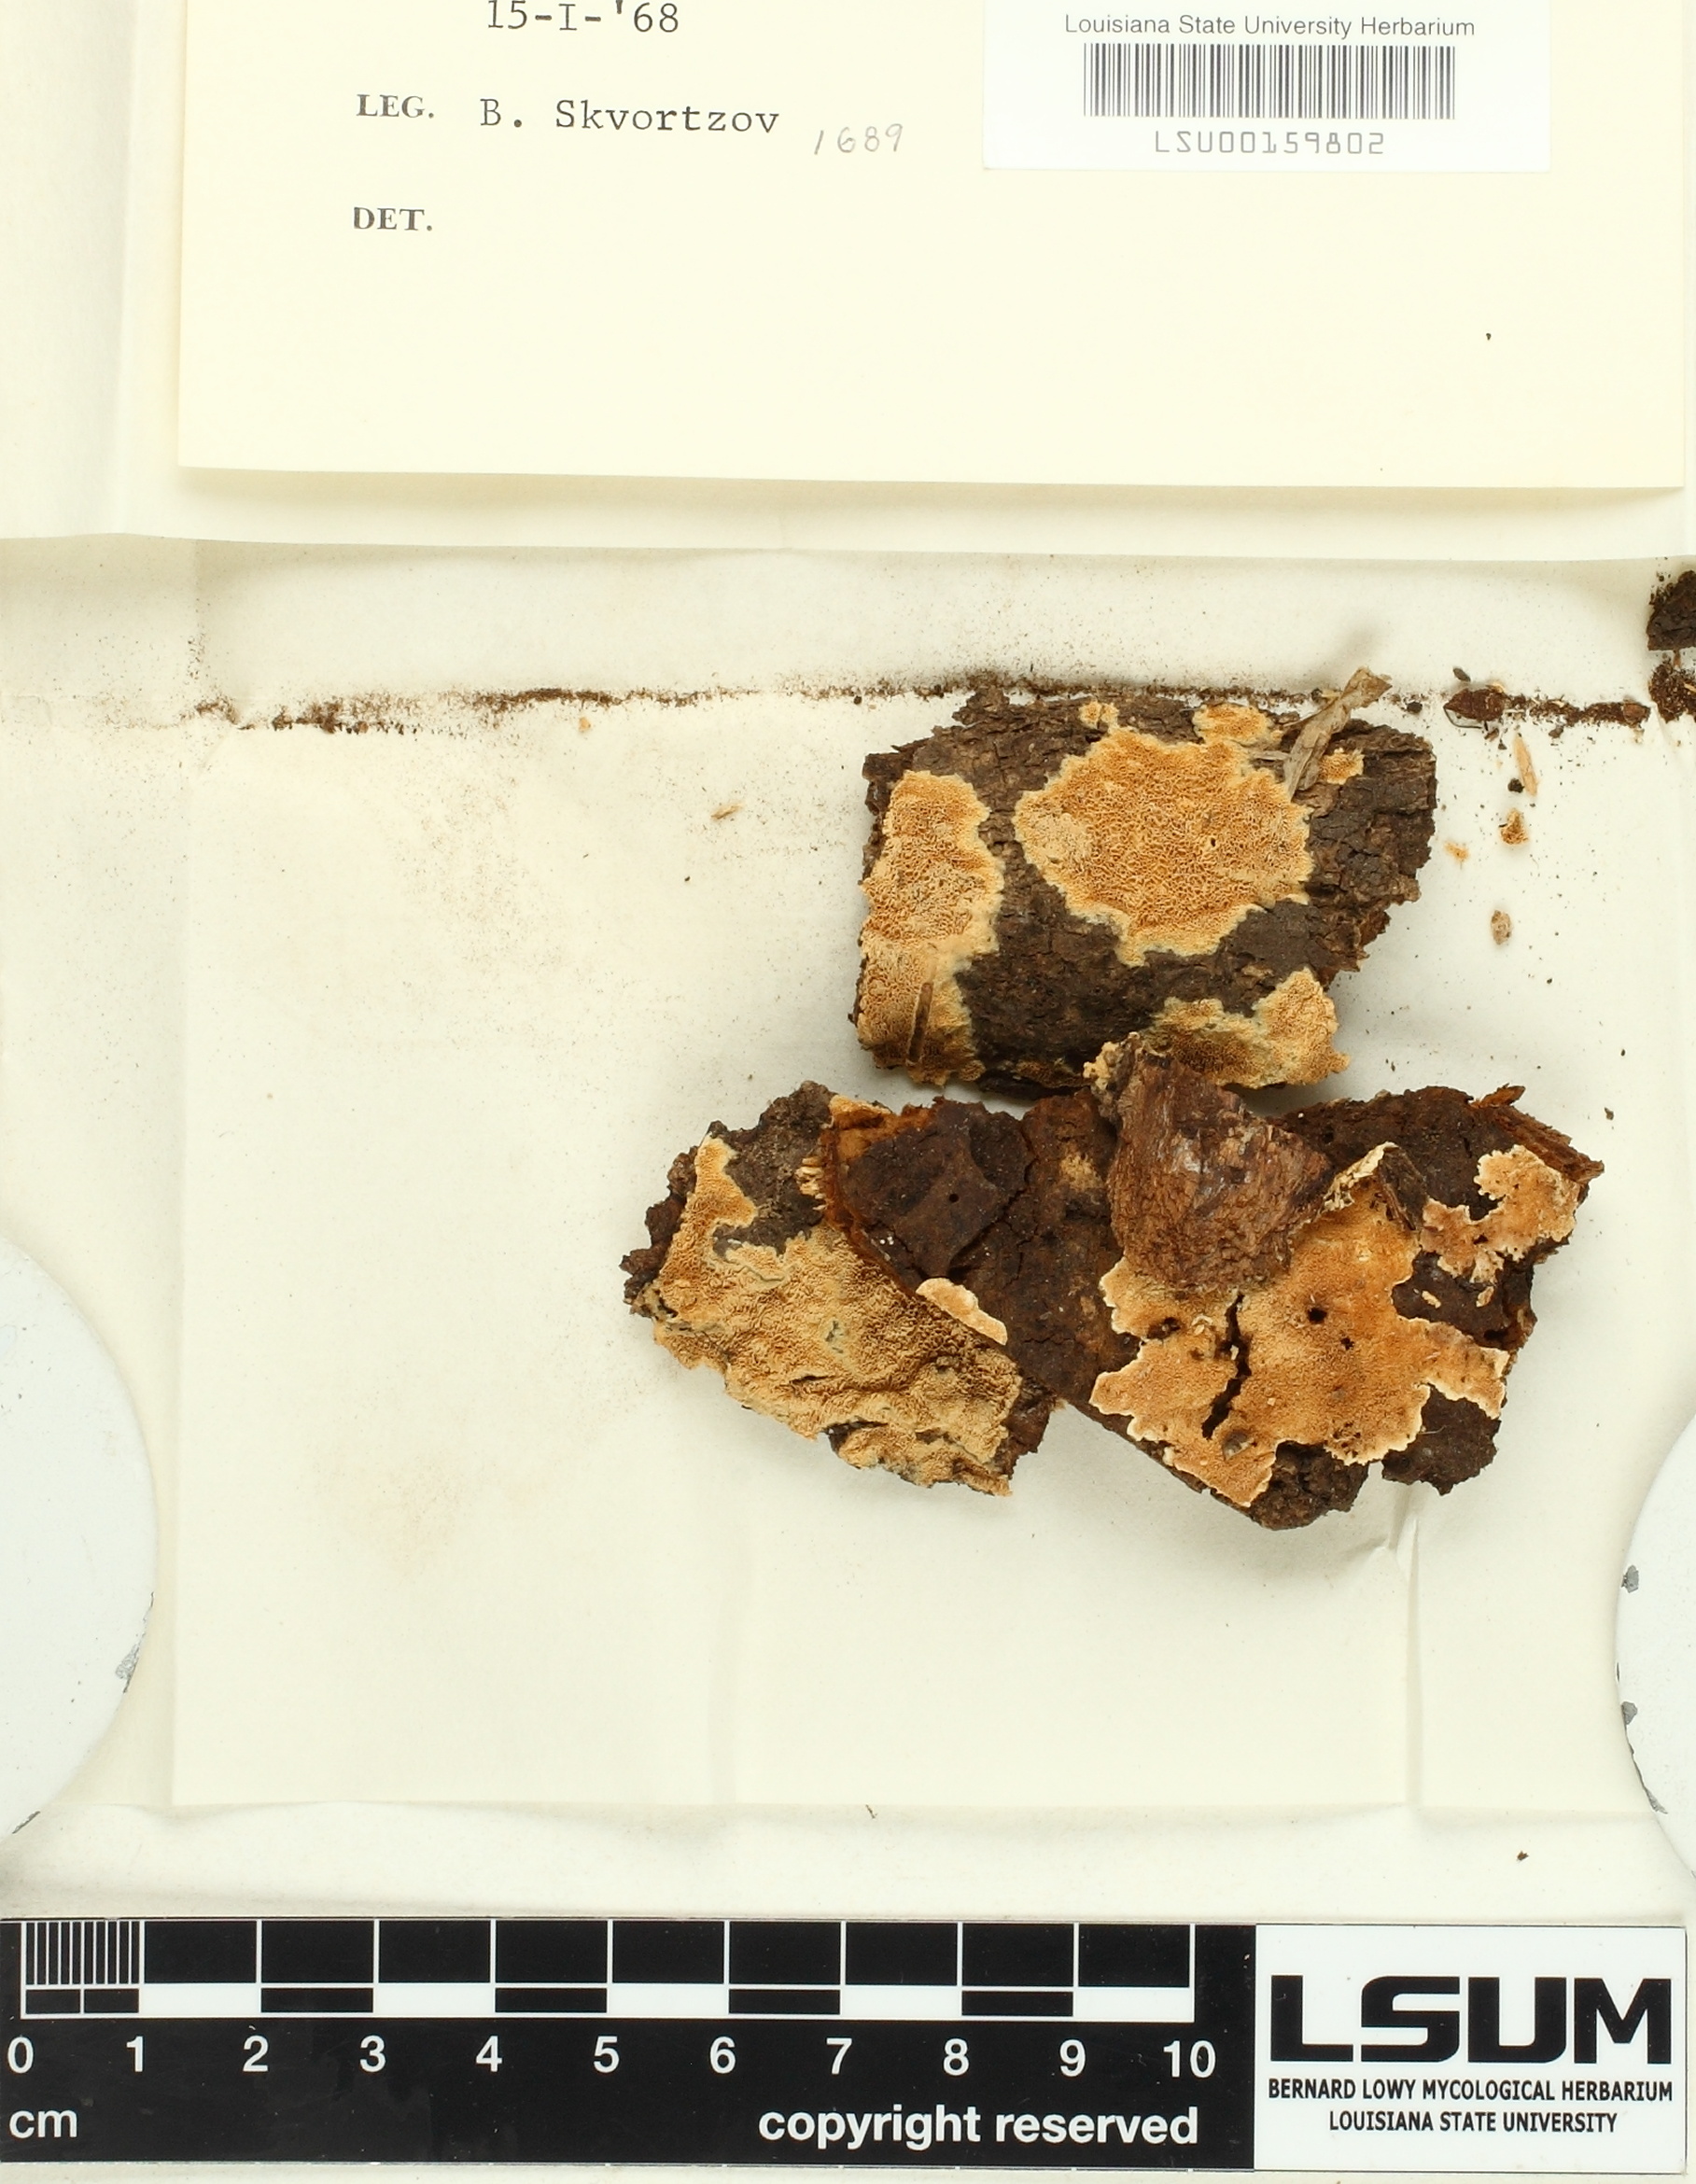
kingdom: Fungi
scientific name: Fungi
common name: Fungi
